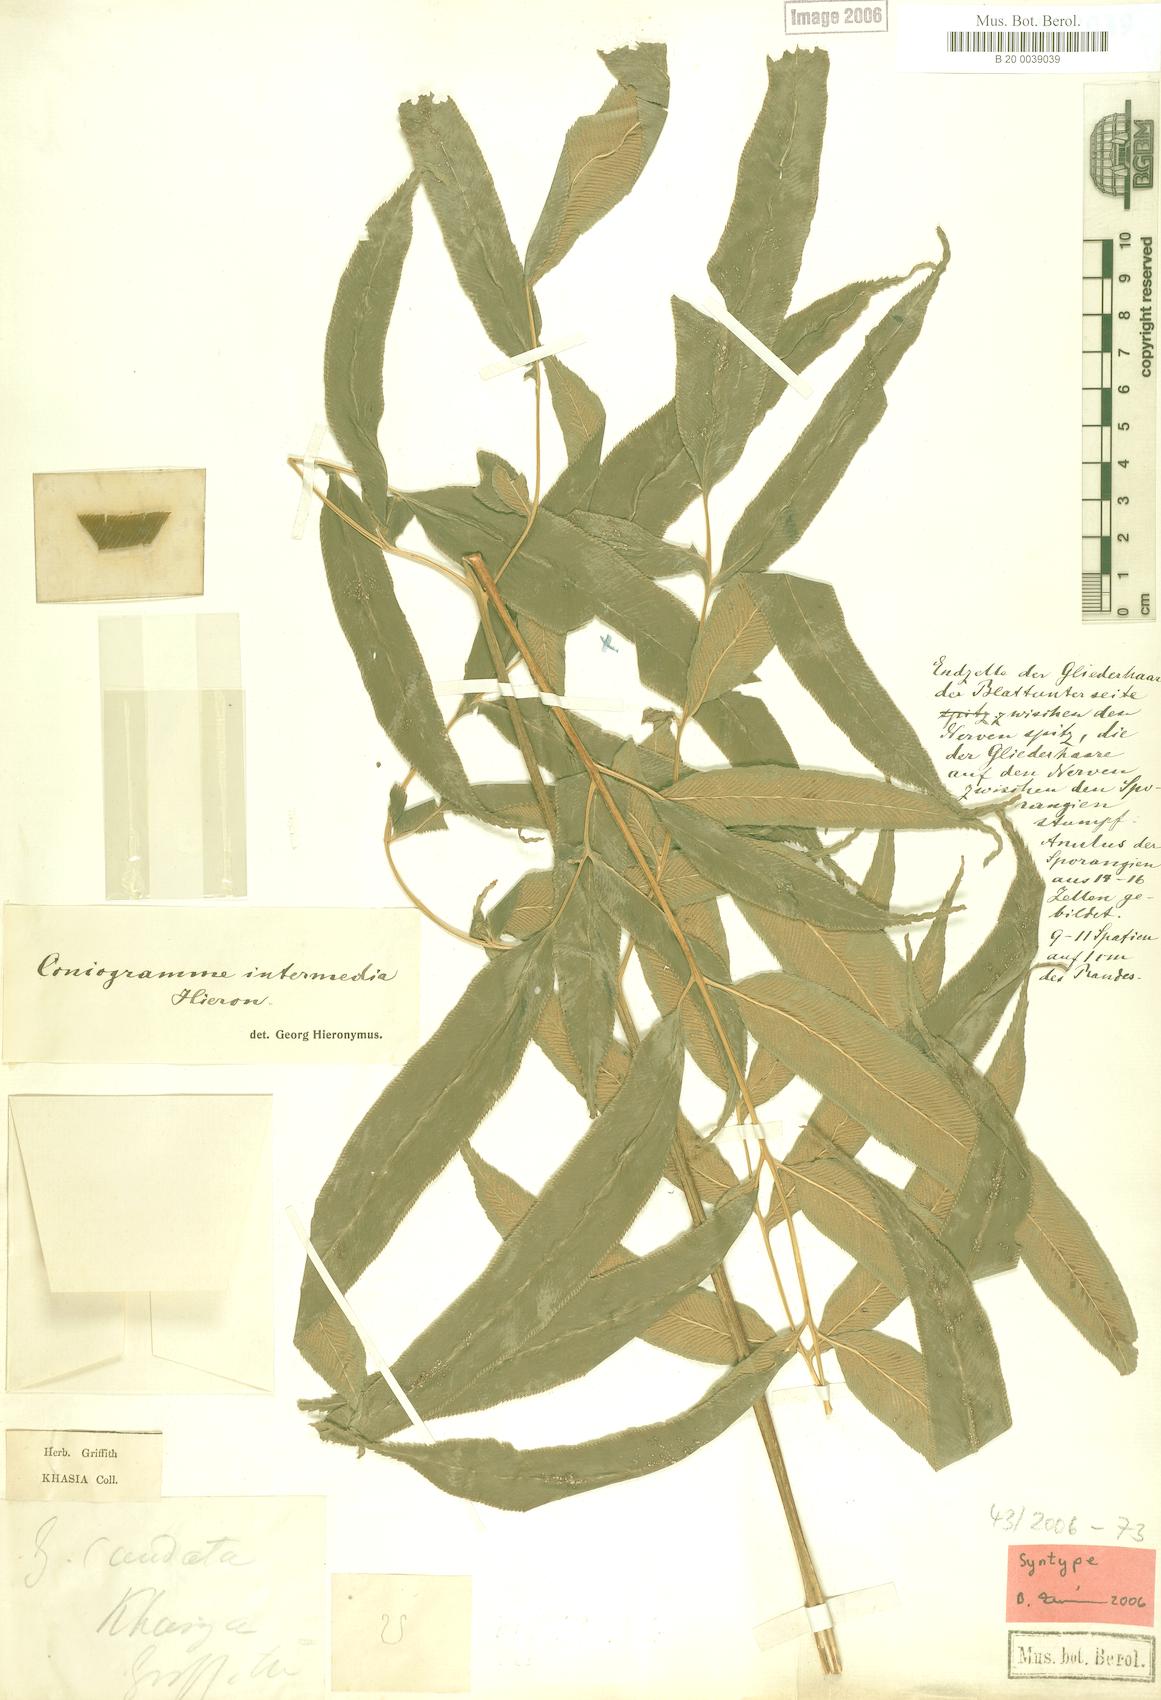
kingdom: Plantae
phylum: Tracheophyta
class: Polypodiopsida
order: Polypodiales
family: Pteridaceae
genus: Coniogramme
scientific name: Coniogramme intermedia
